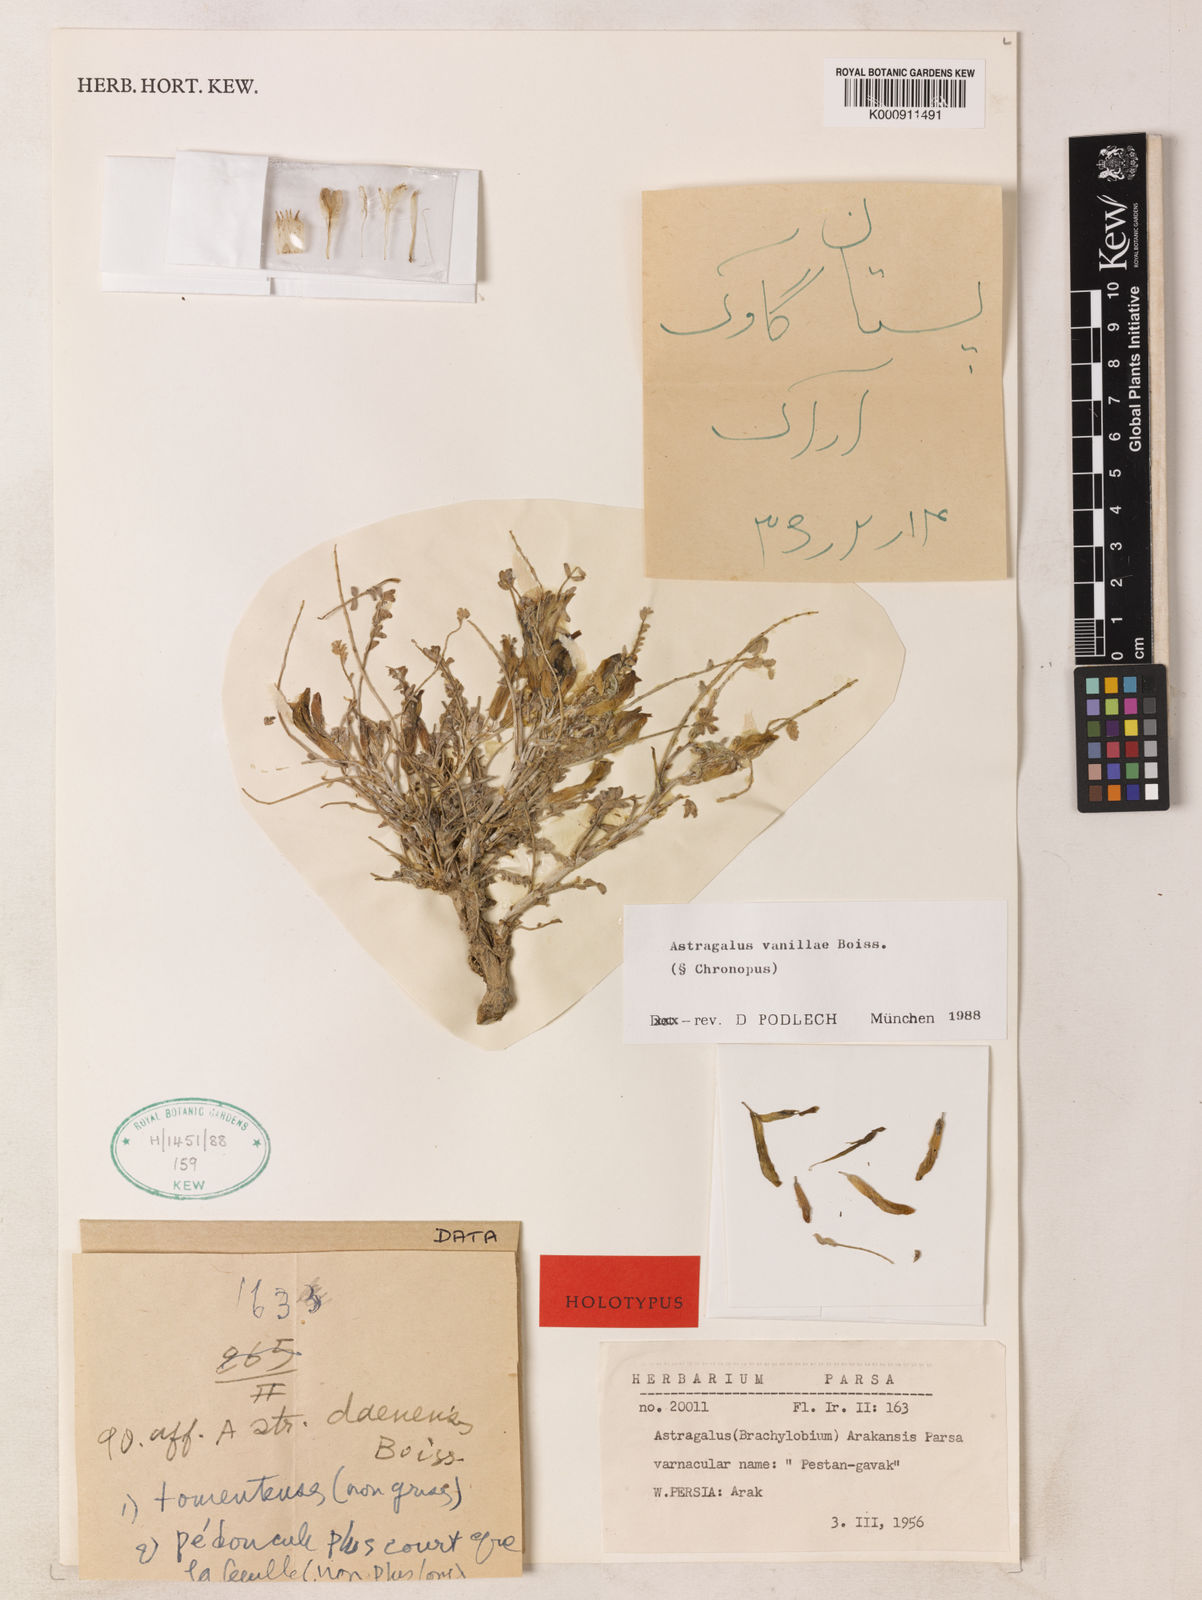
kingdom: Plantae
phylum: Tracheophyta
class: Magnoliopsida
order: Fabales
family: Fabaceae
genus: Astragalus
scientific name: Astragalus vanillae
